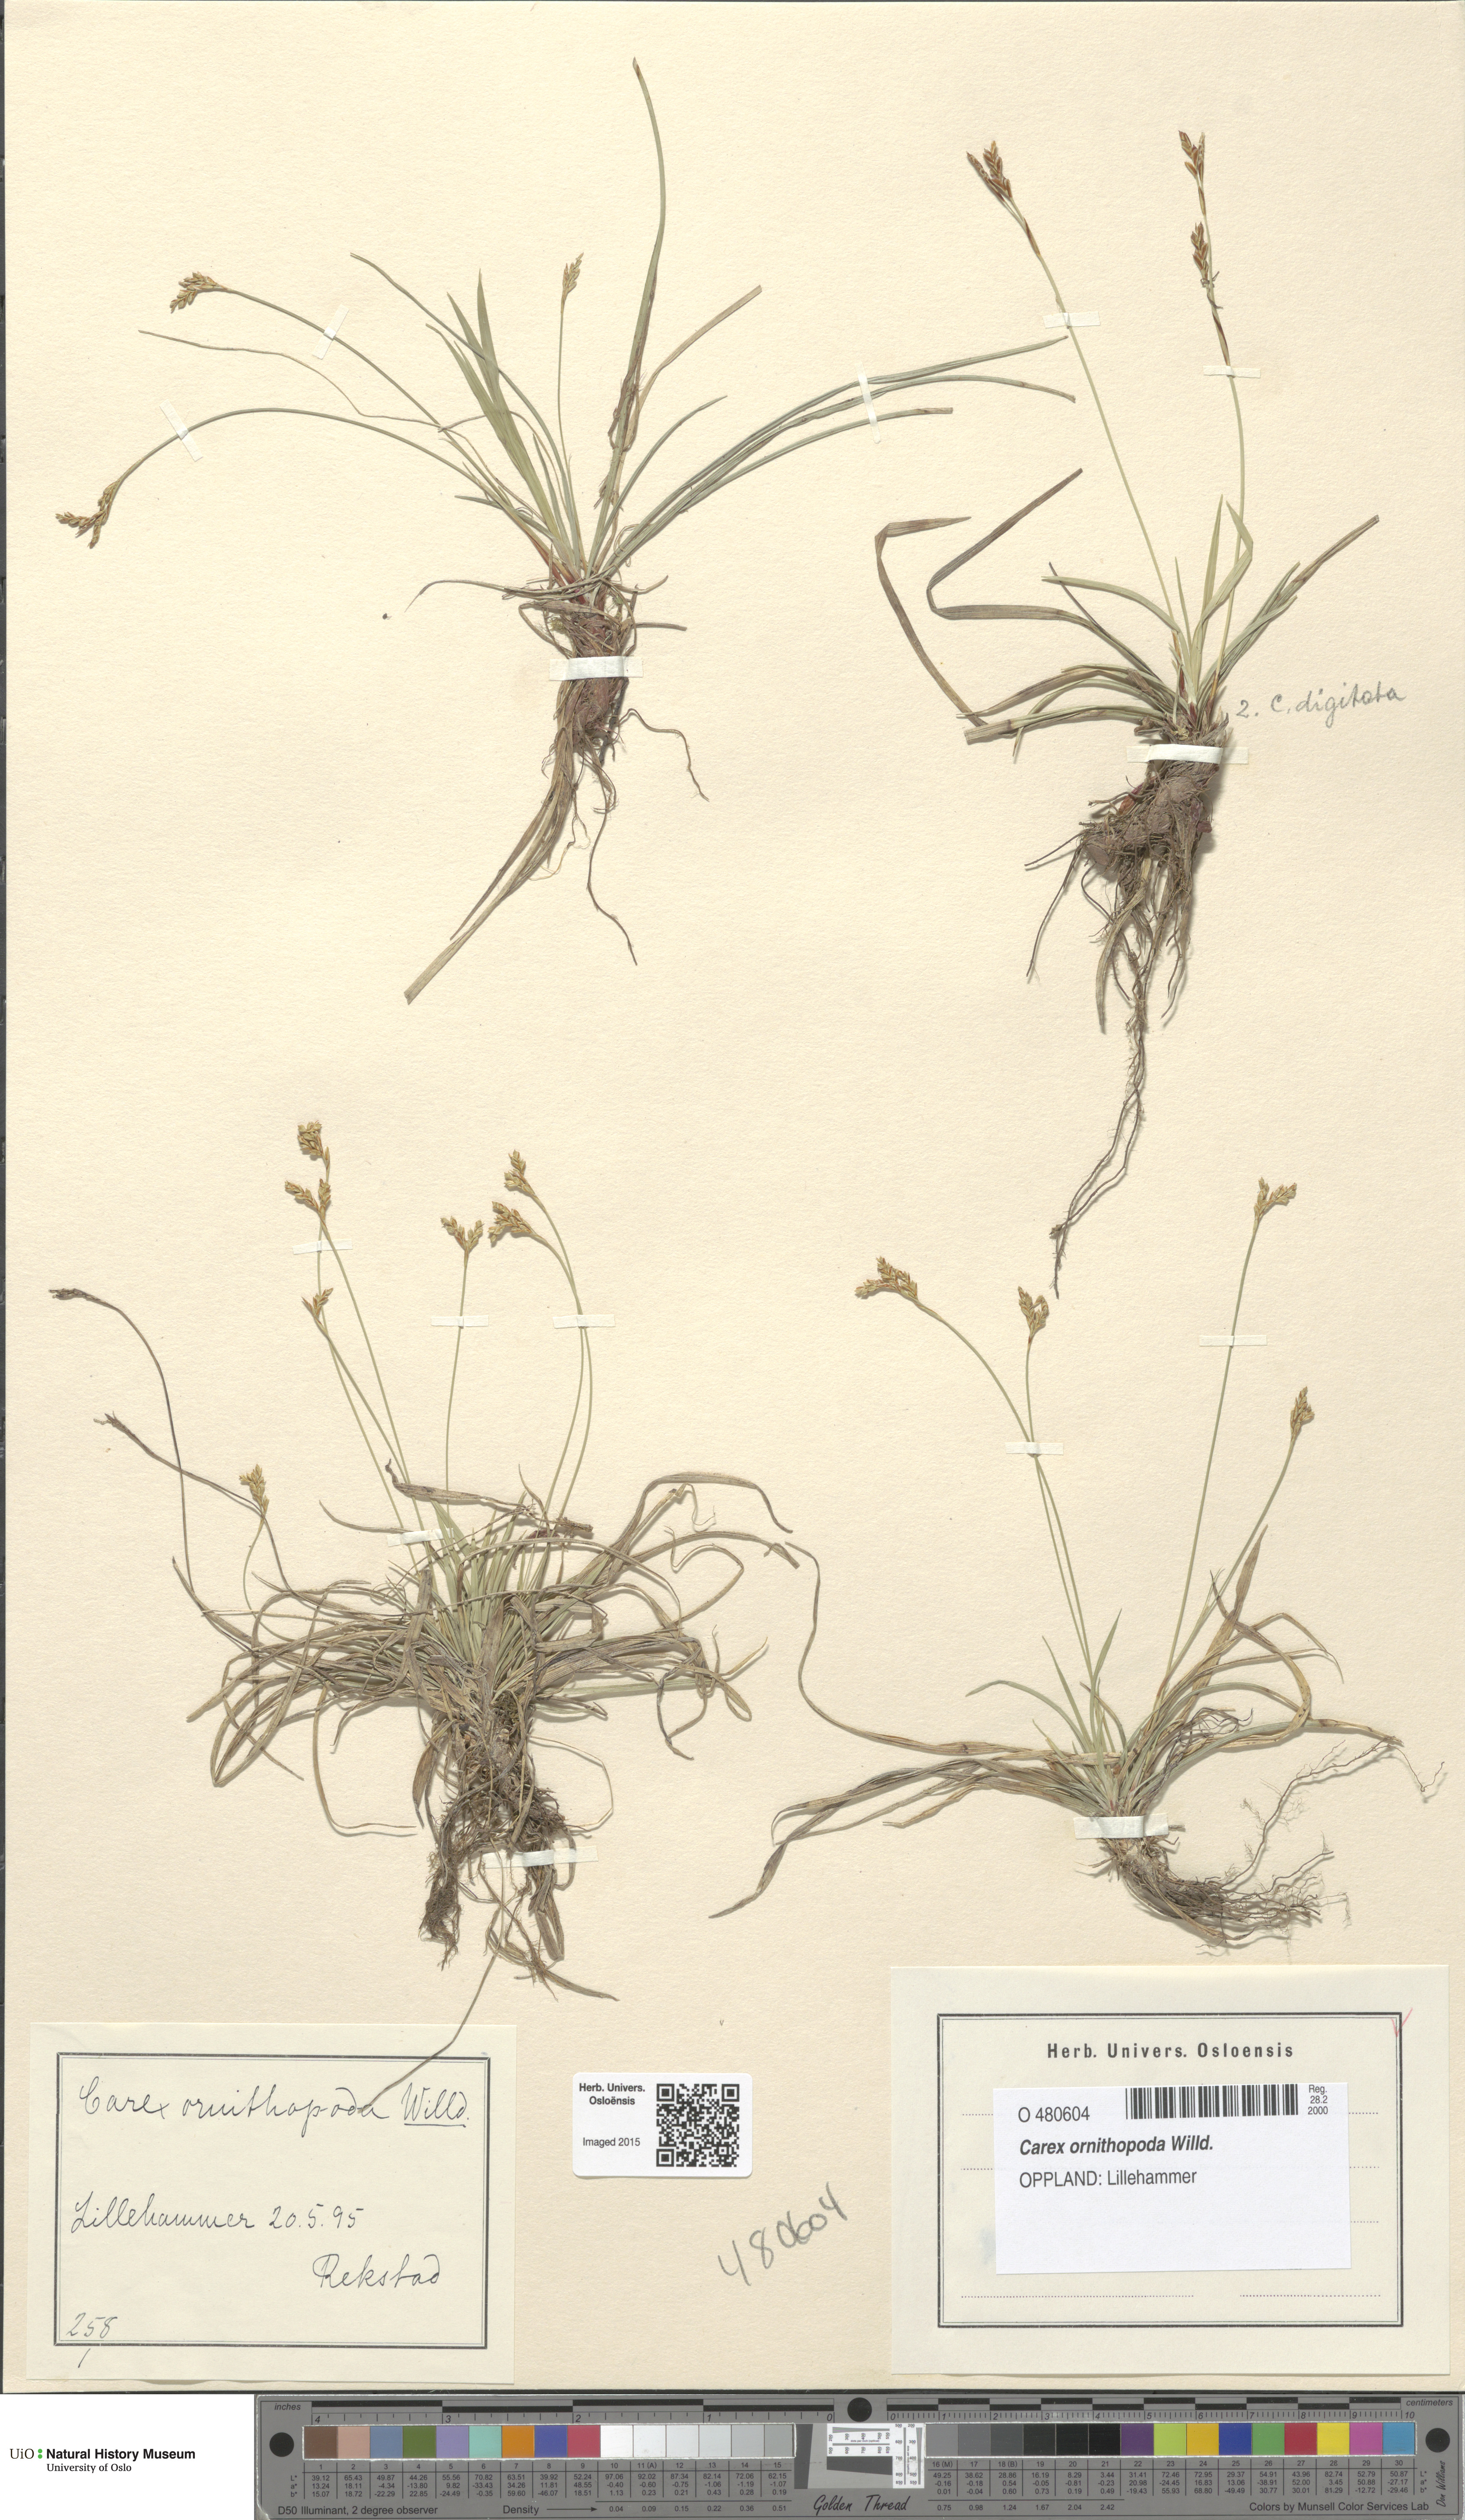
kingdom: Plantae
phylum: Tracheophyta
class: Liliopsida
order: Poales
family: Cyperaceae
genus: Carex
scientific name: Carex ornithopoda
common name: Bird's-foot sedge
